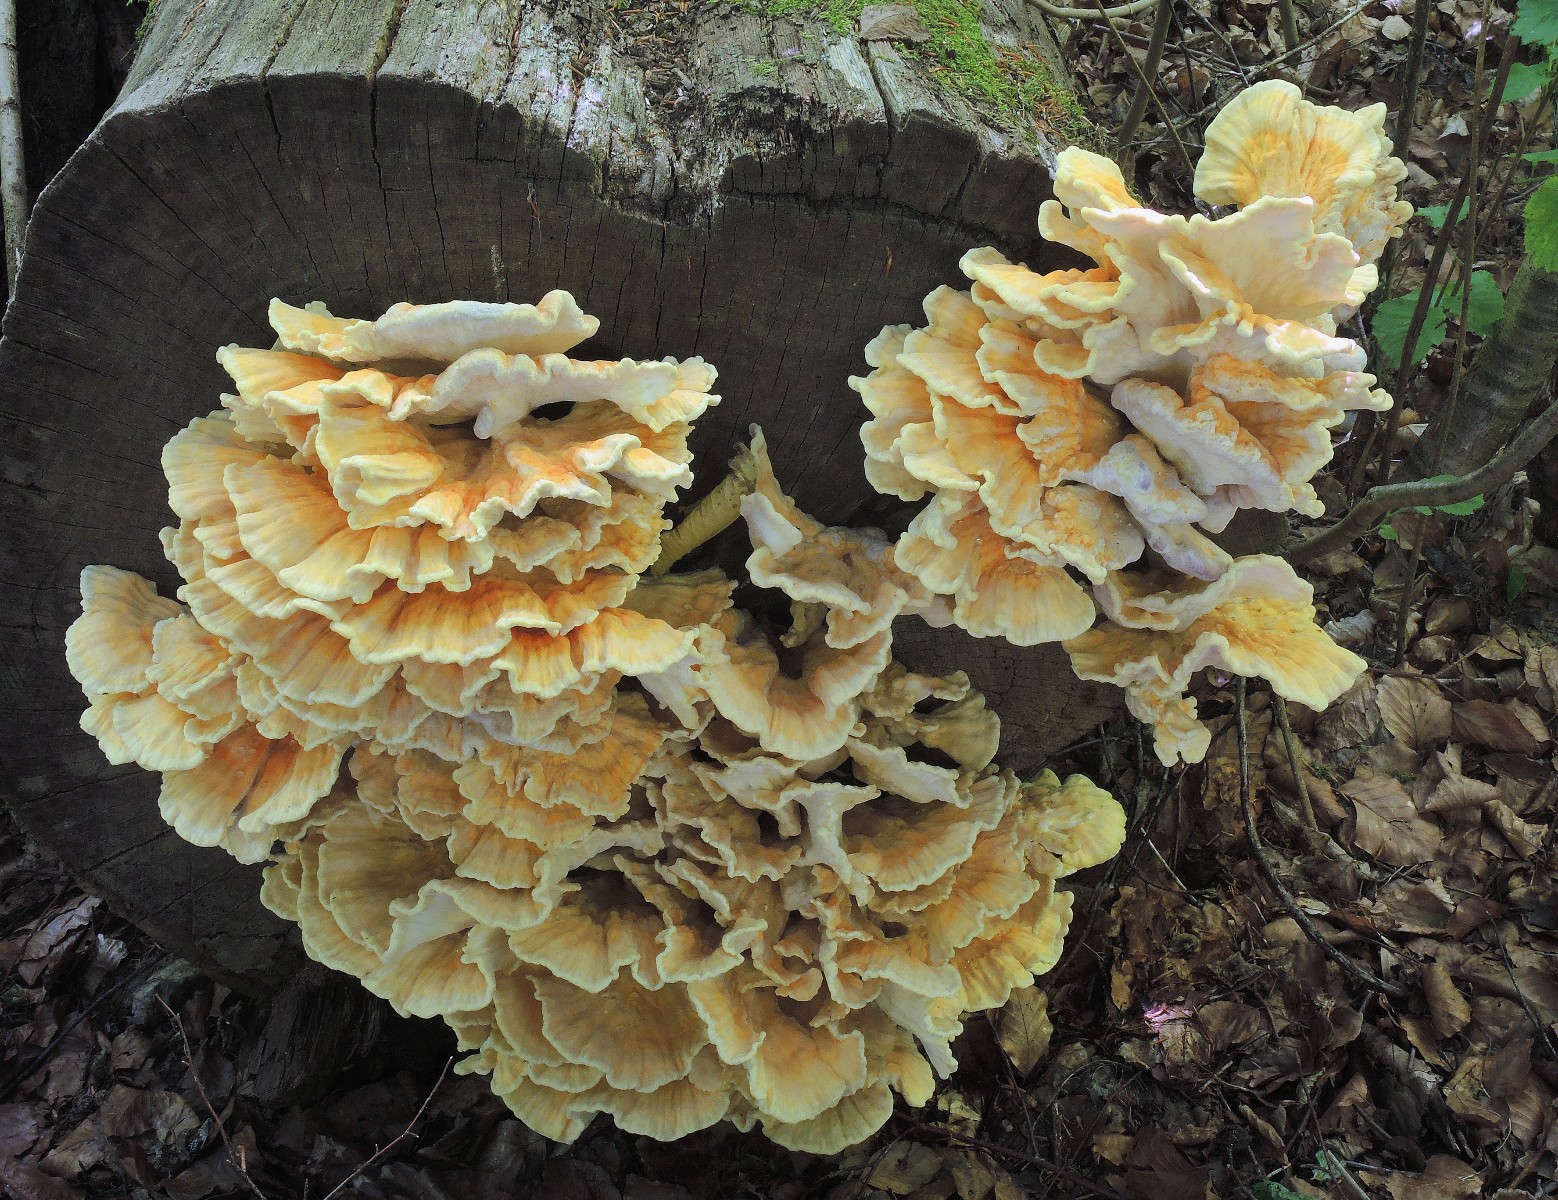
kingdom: Fungi
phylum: Basidiomycota
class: Agaricomycetes
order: Polyporales
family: Laetiporaceae
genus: Laetiporus
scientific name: Laetiporus sulphureus
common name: svovlporesvamp
